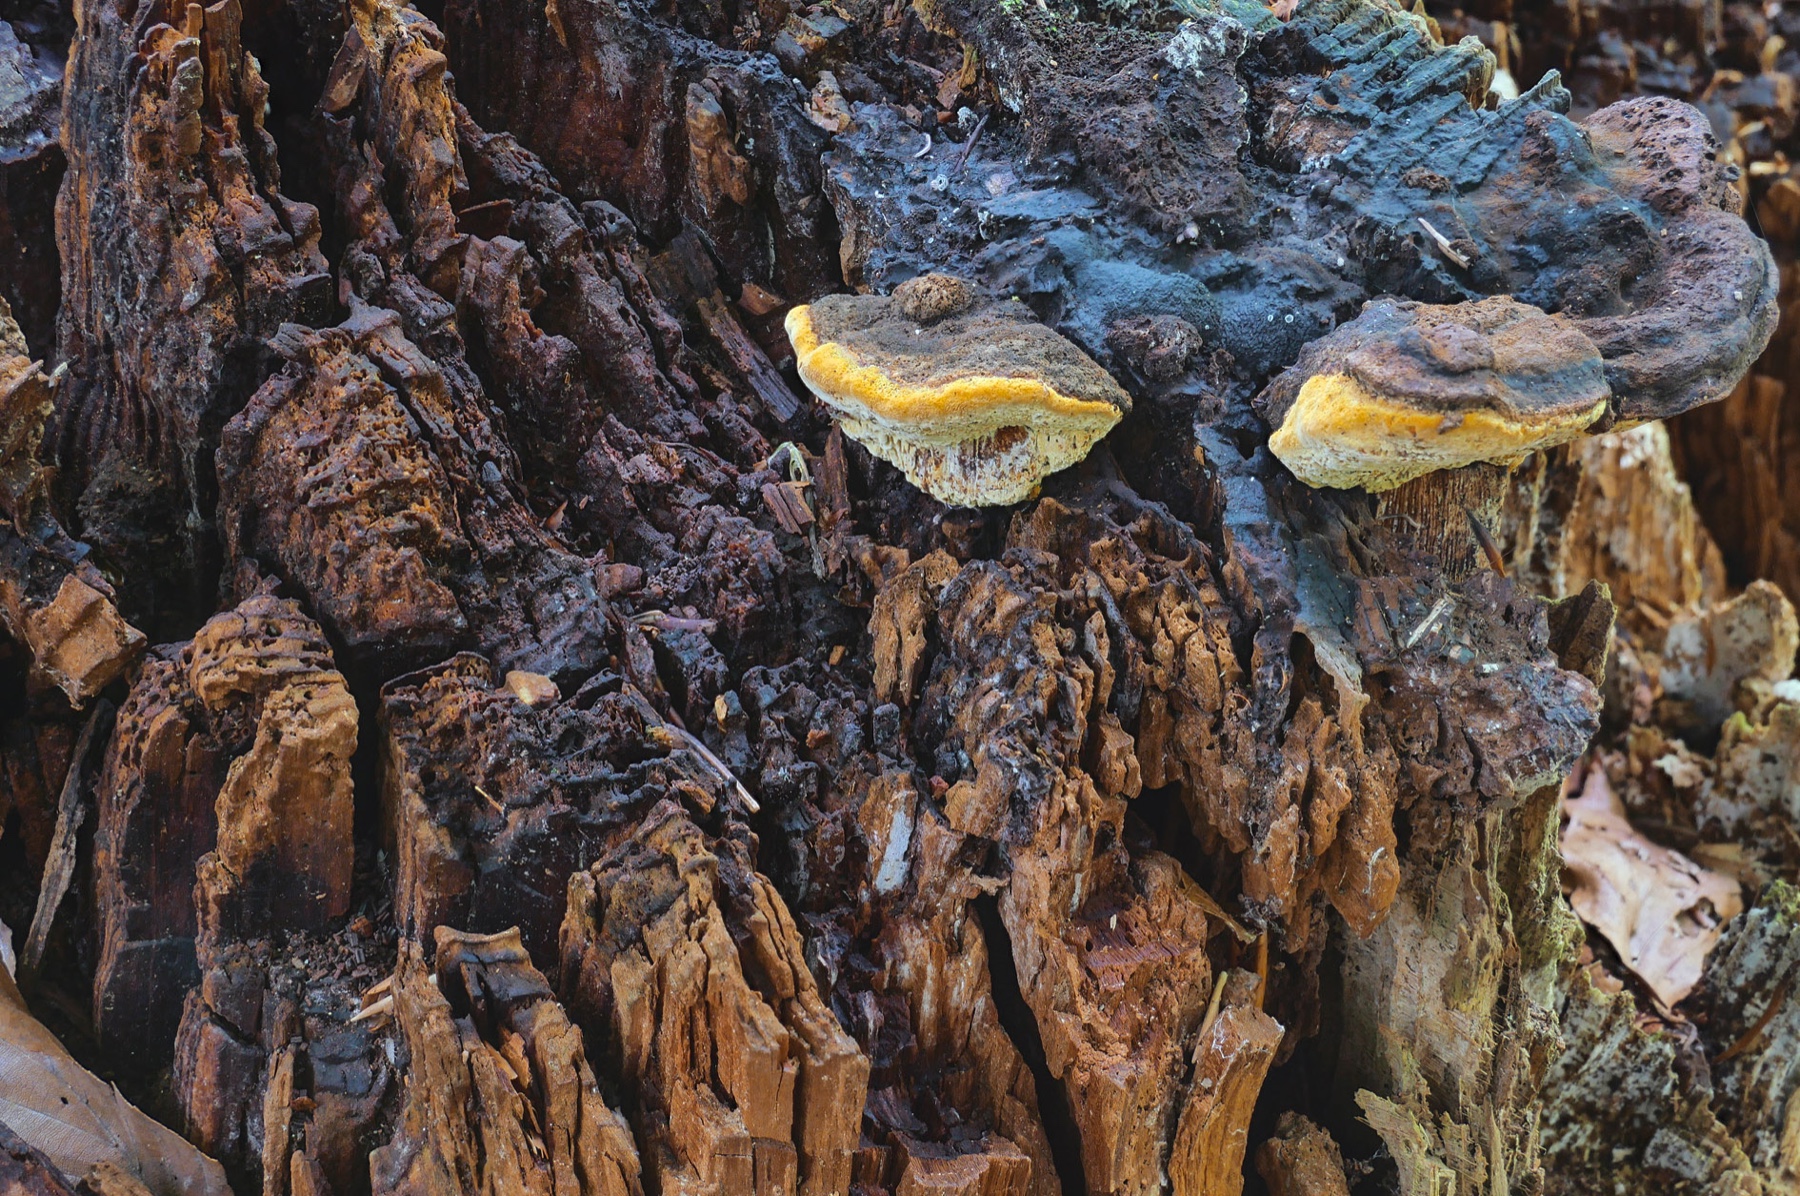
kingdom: Fungi
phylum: Basidiomycota
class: Agaricomycetes
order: Gloeophyllales
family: Gloeophyllaceae
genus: Gloeophyllum
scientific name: Gloeophyllum odoratum
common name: duftende korkhat
